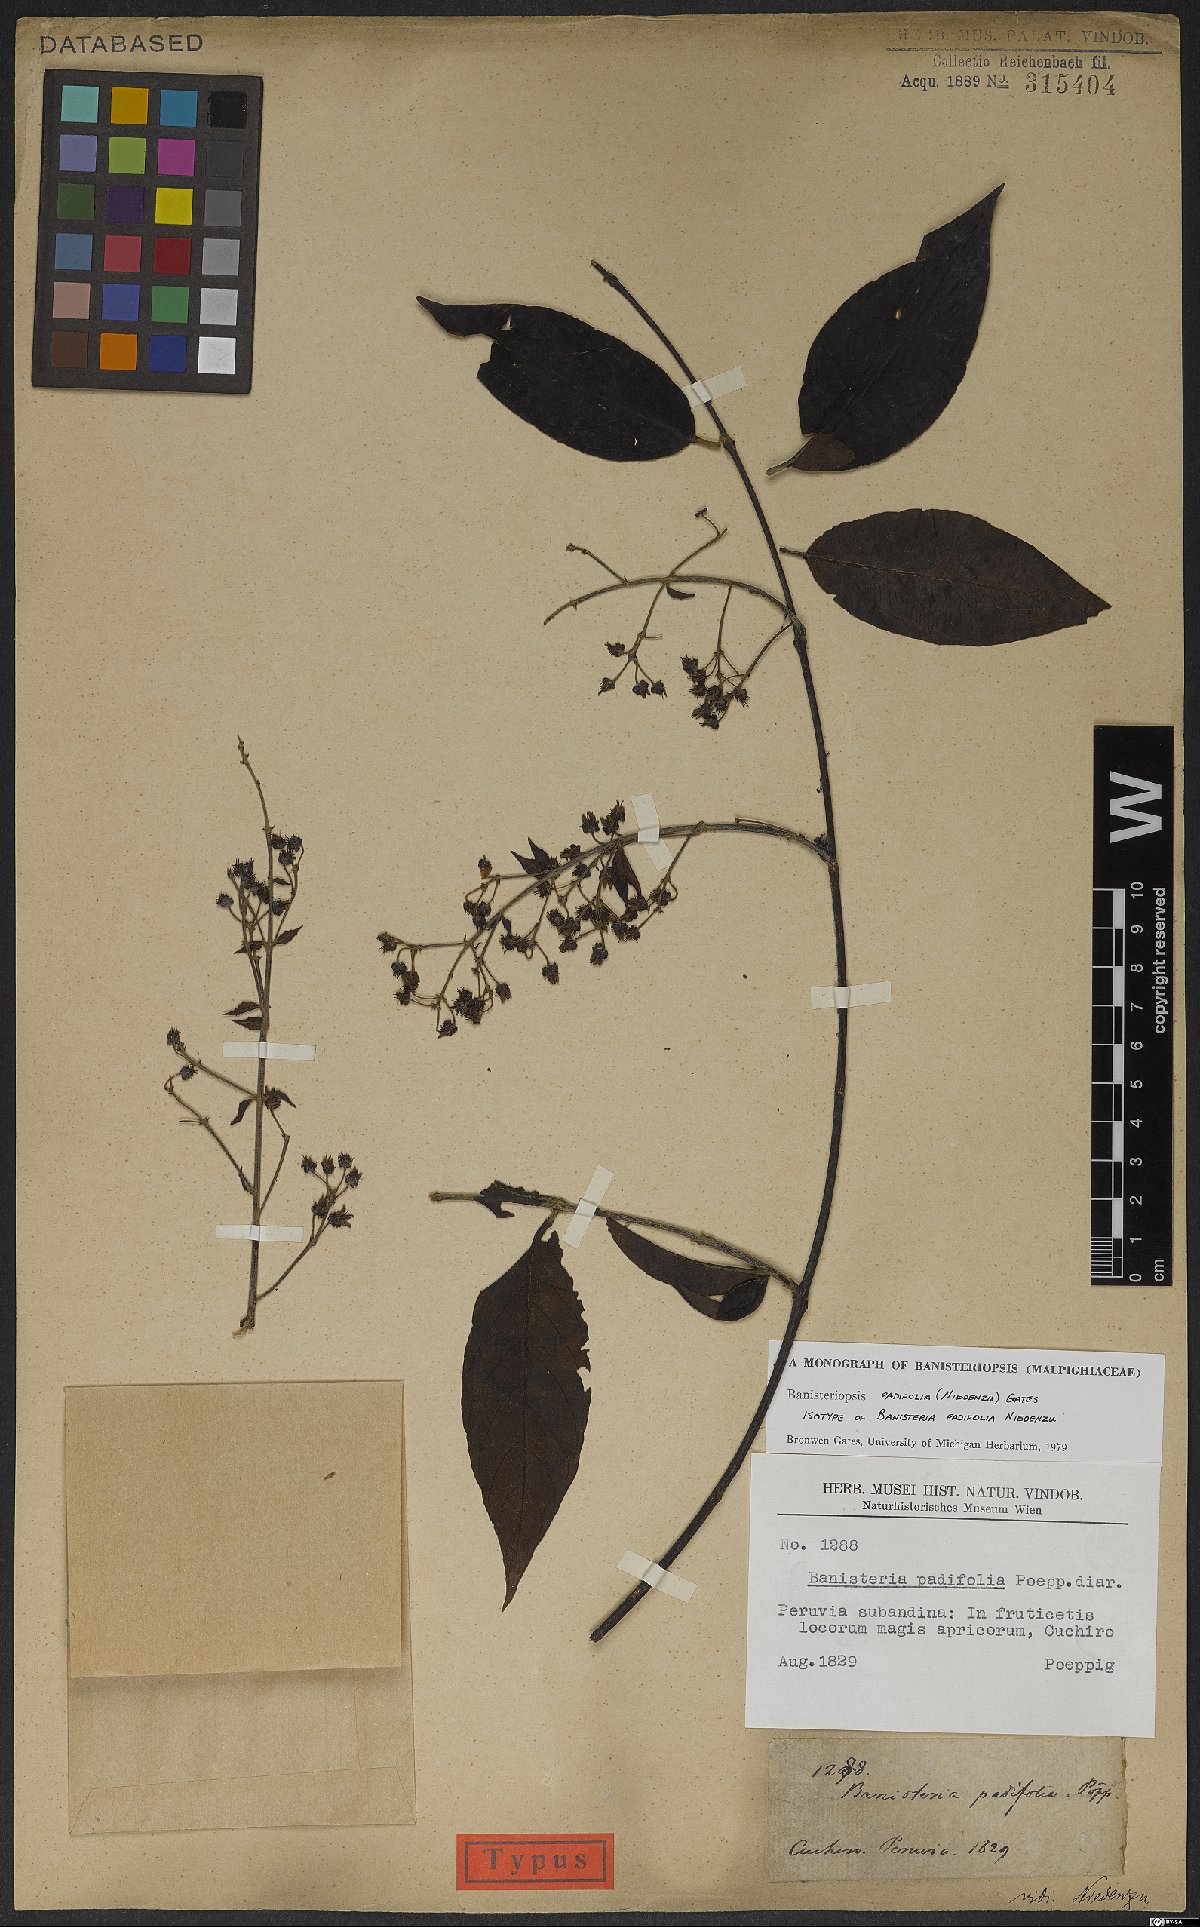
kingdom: Plantae
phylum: Tracheophyta
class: Magnoliopsida
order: Malpighiales
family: Malpighiaceae
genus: Banisteriopsis
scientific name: Banisteriopsis padifolia
